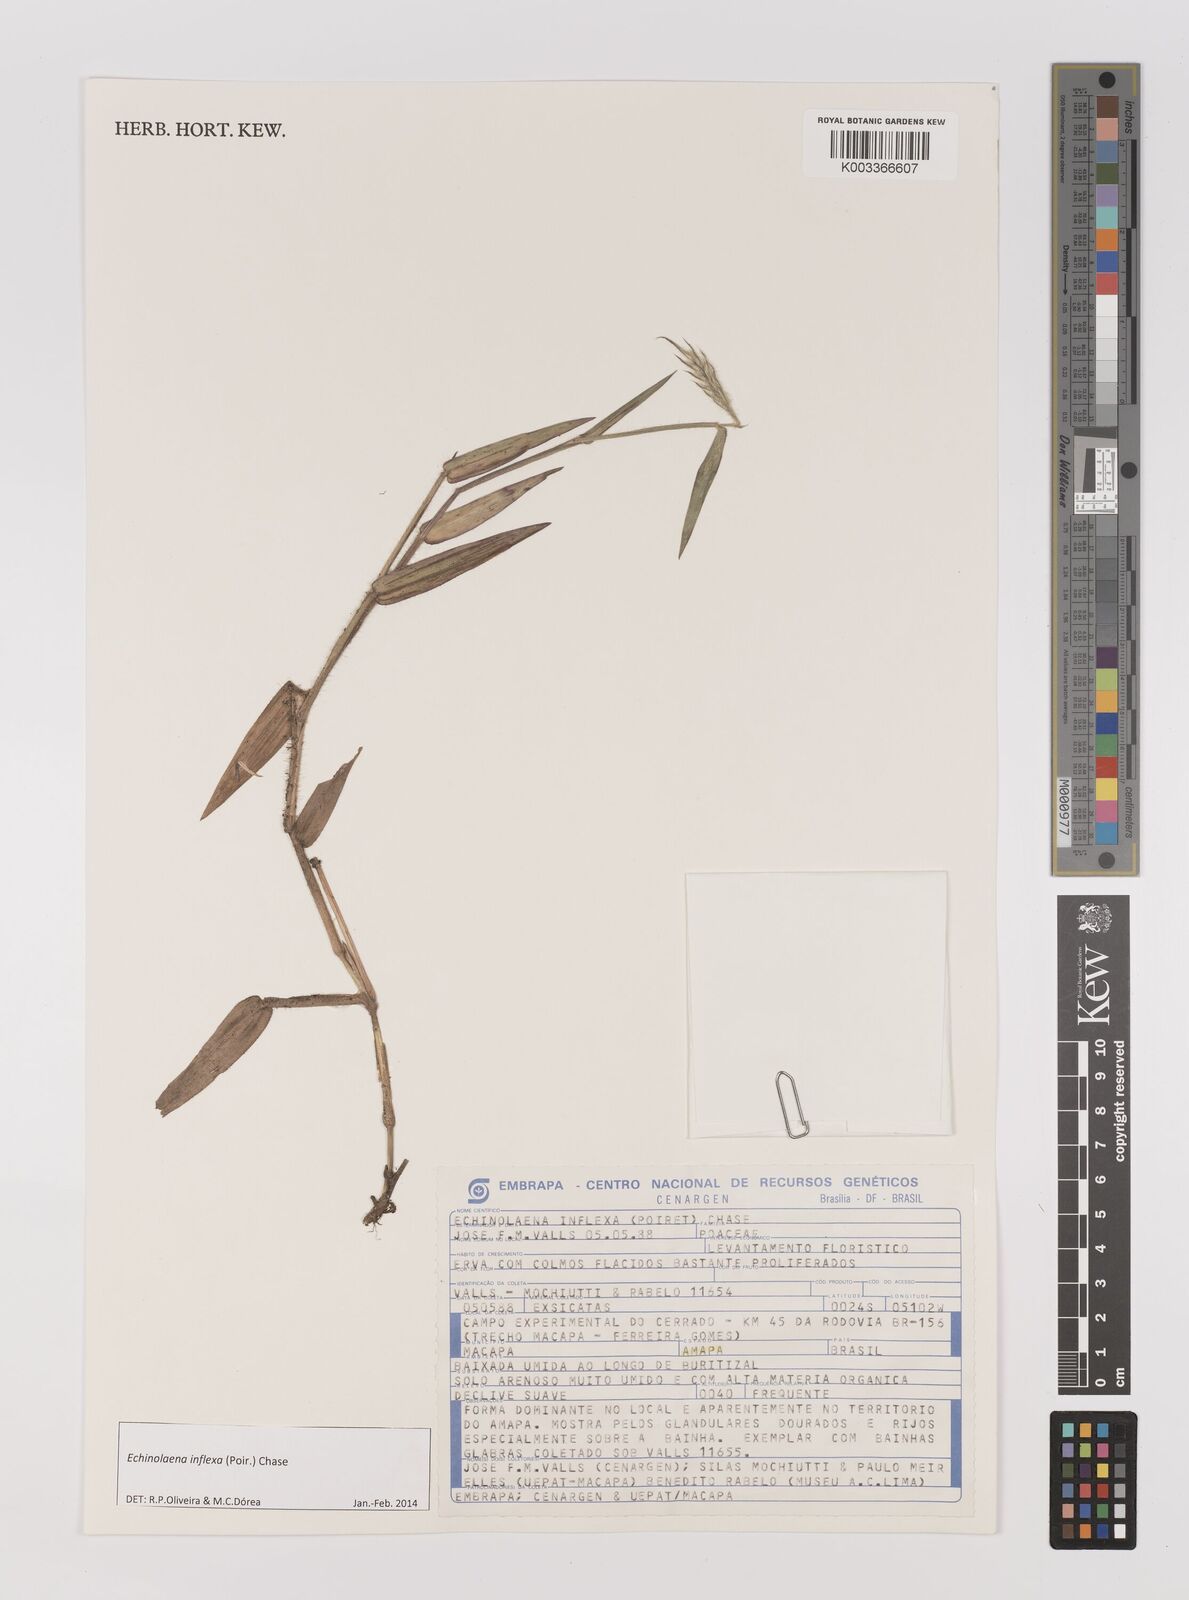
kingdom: Plantae
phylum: Tracheophyta
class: Liliopsida
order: Poales
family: Poaceae
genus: Echinolaena
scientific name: Echinolaena inflexa
